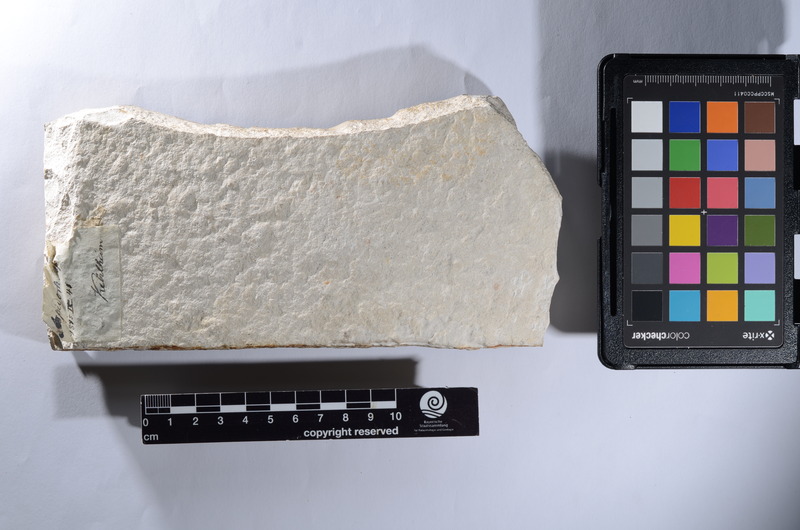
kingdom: Animalia
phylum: Chordata
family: Aspidorhynchidae
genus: Aspidorhynchus
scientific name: Aspidorhynchus
